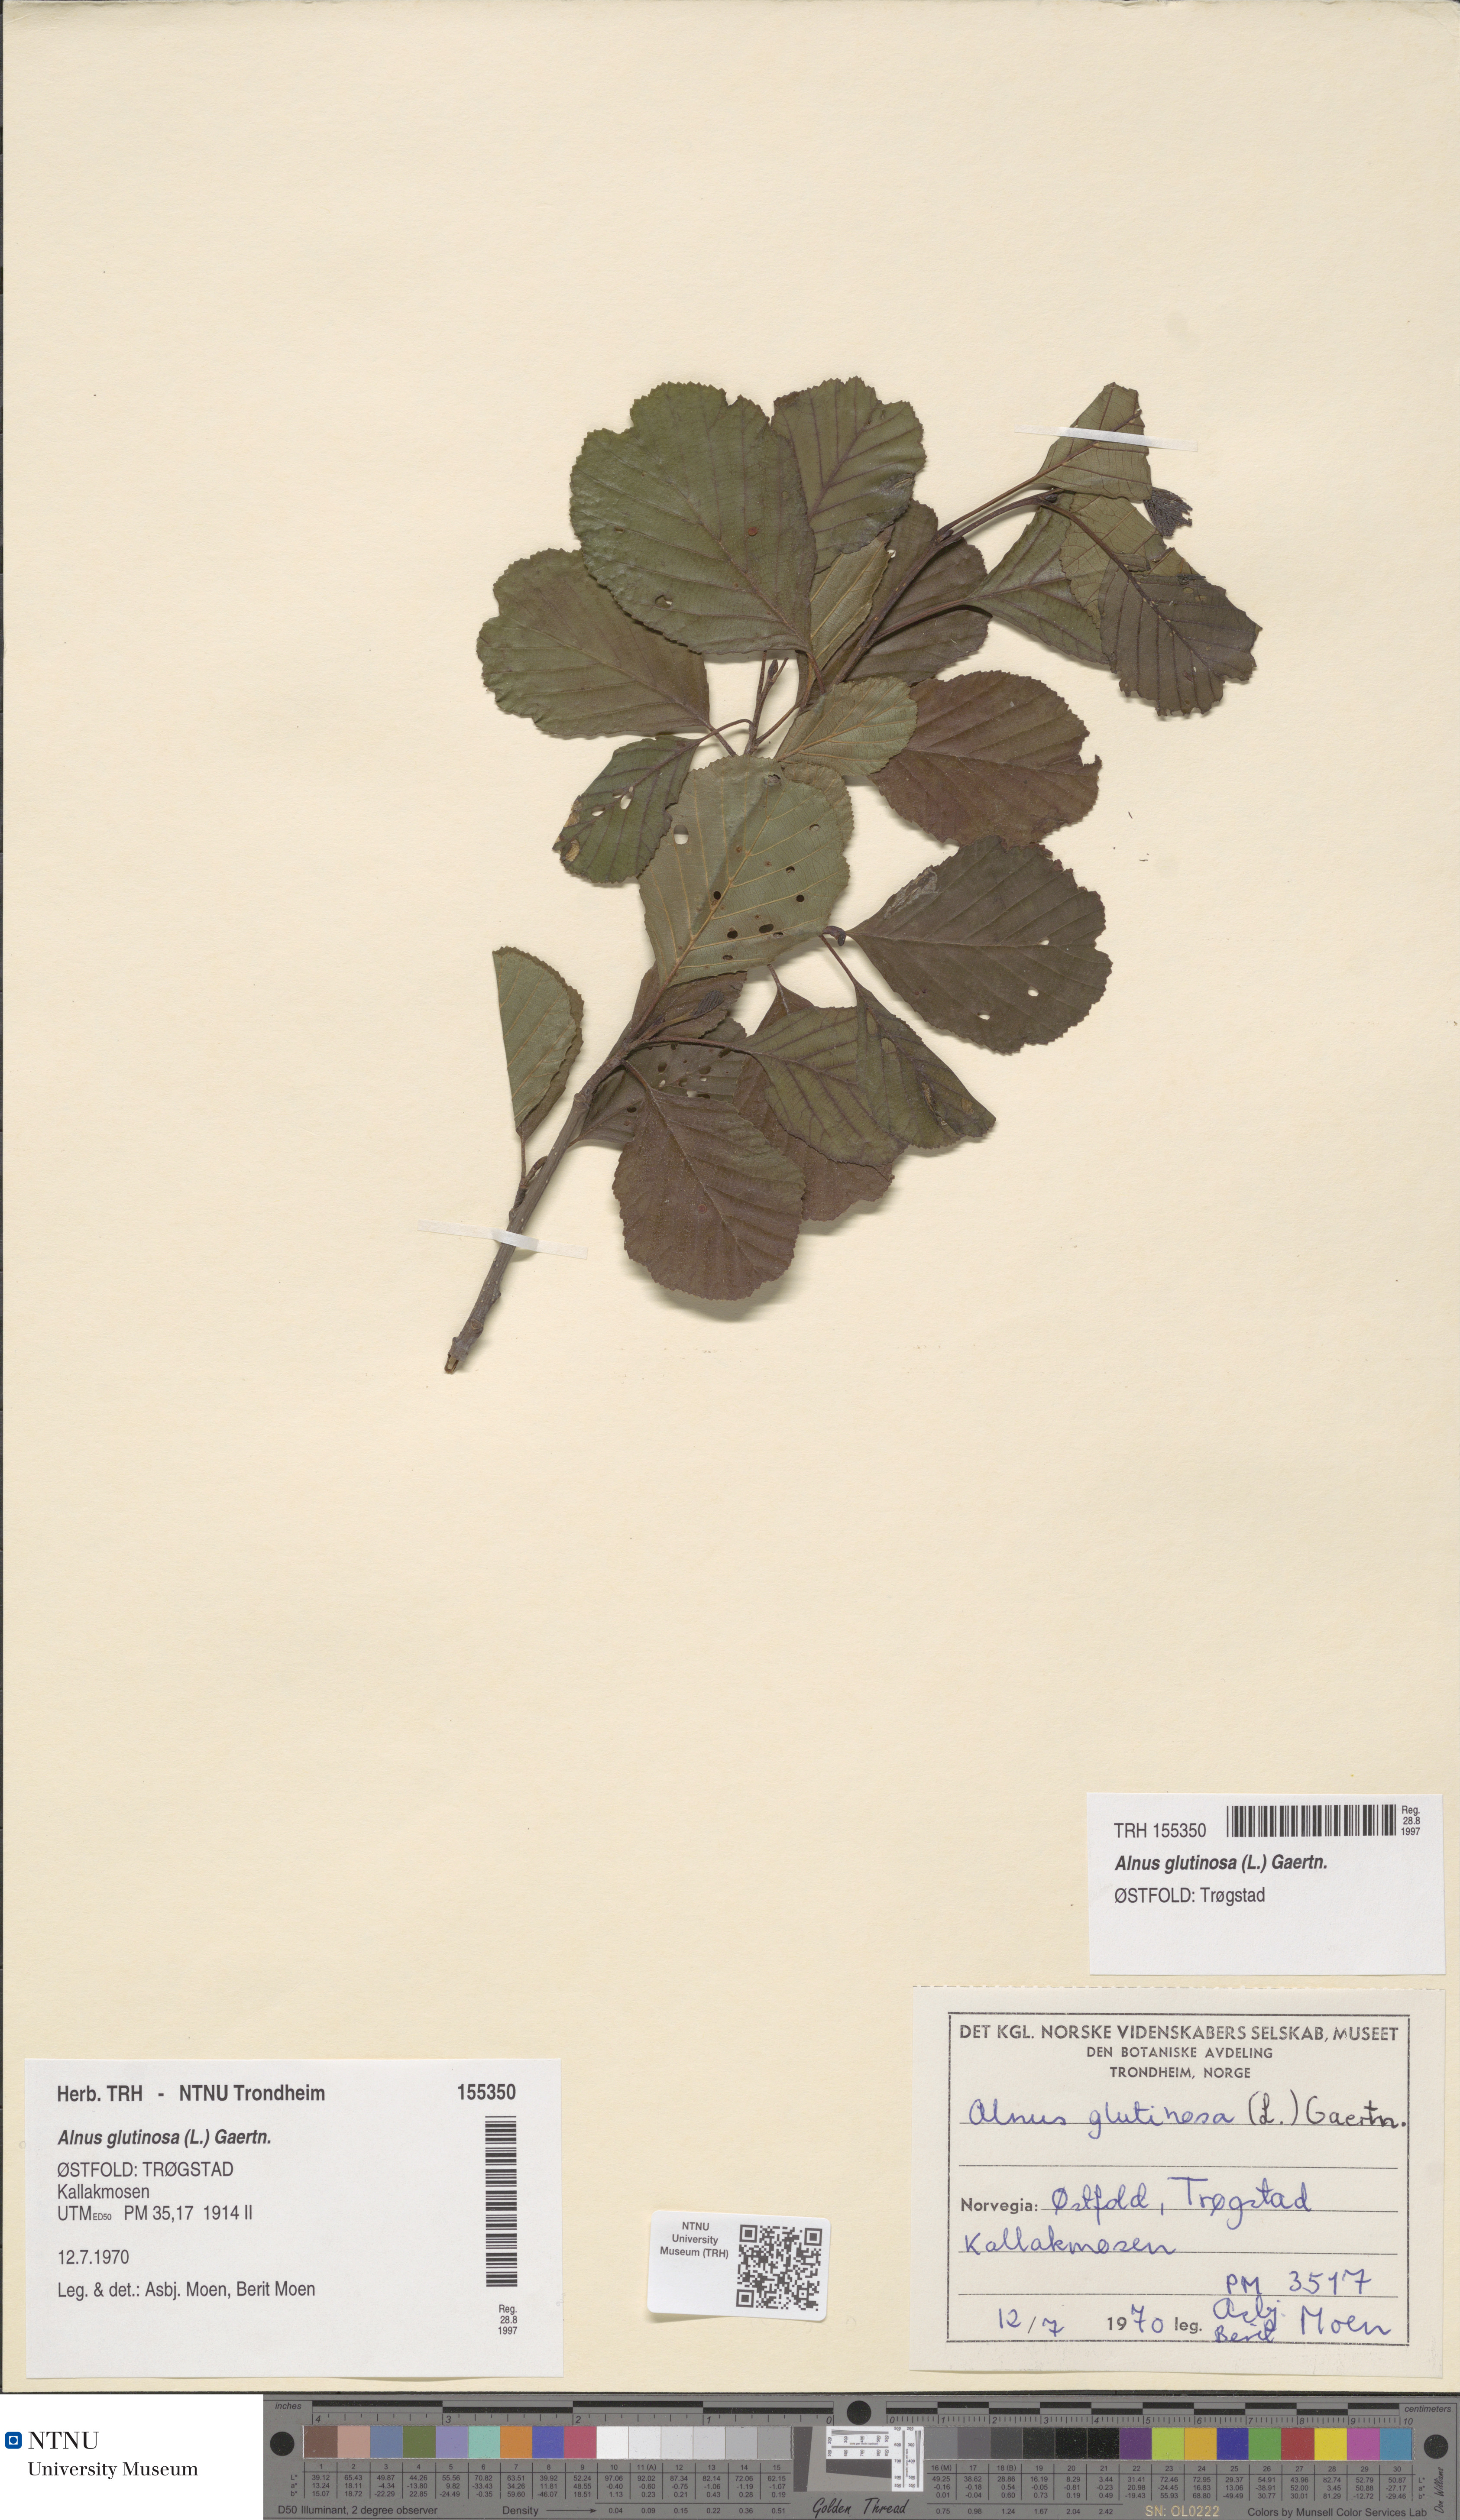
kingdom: Plantae
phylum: Tracheophyta
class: Magnoliopsida
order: Fagales
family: Betulaceae
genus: Alnus
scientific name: Alnus glutinosa
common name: Black alder
